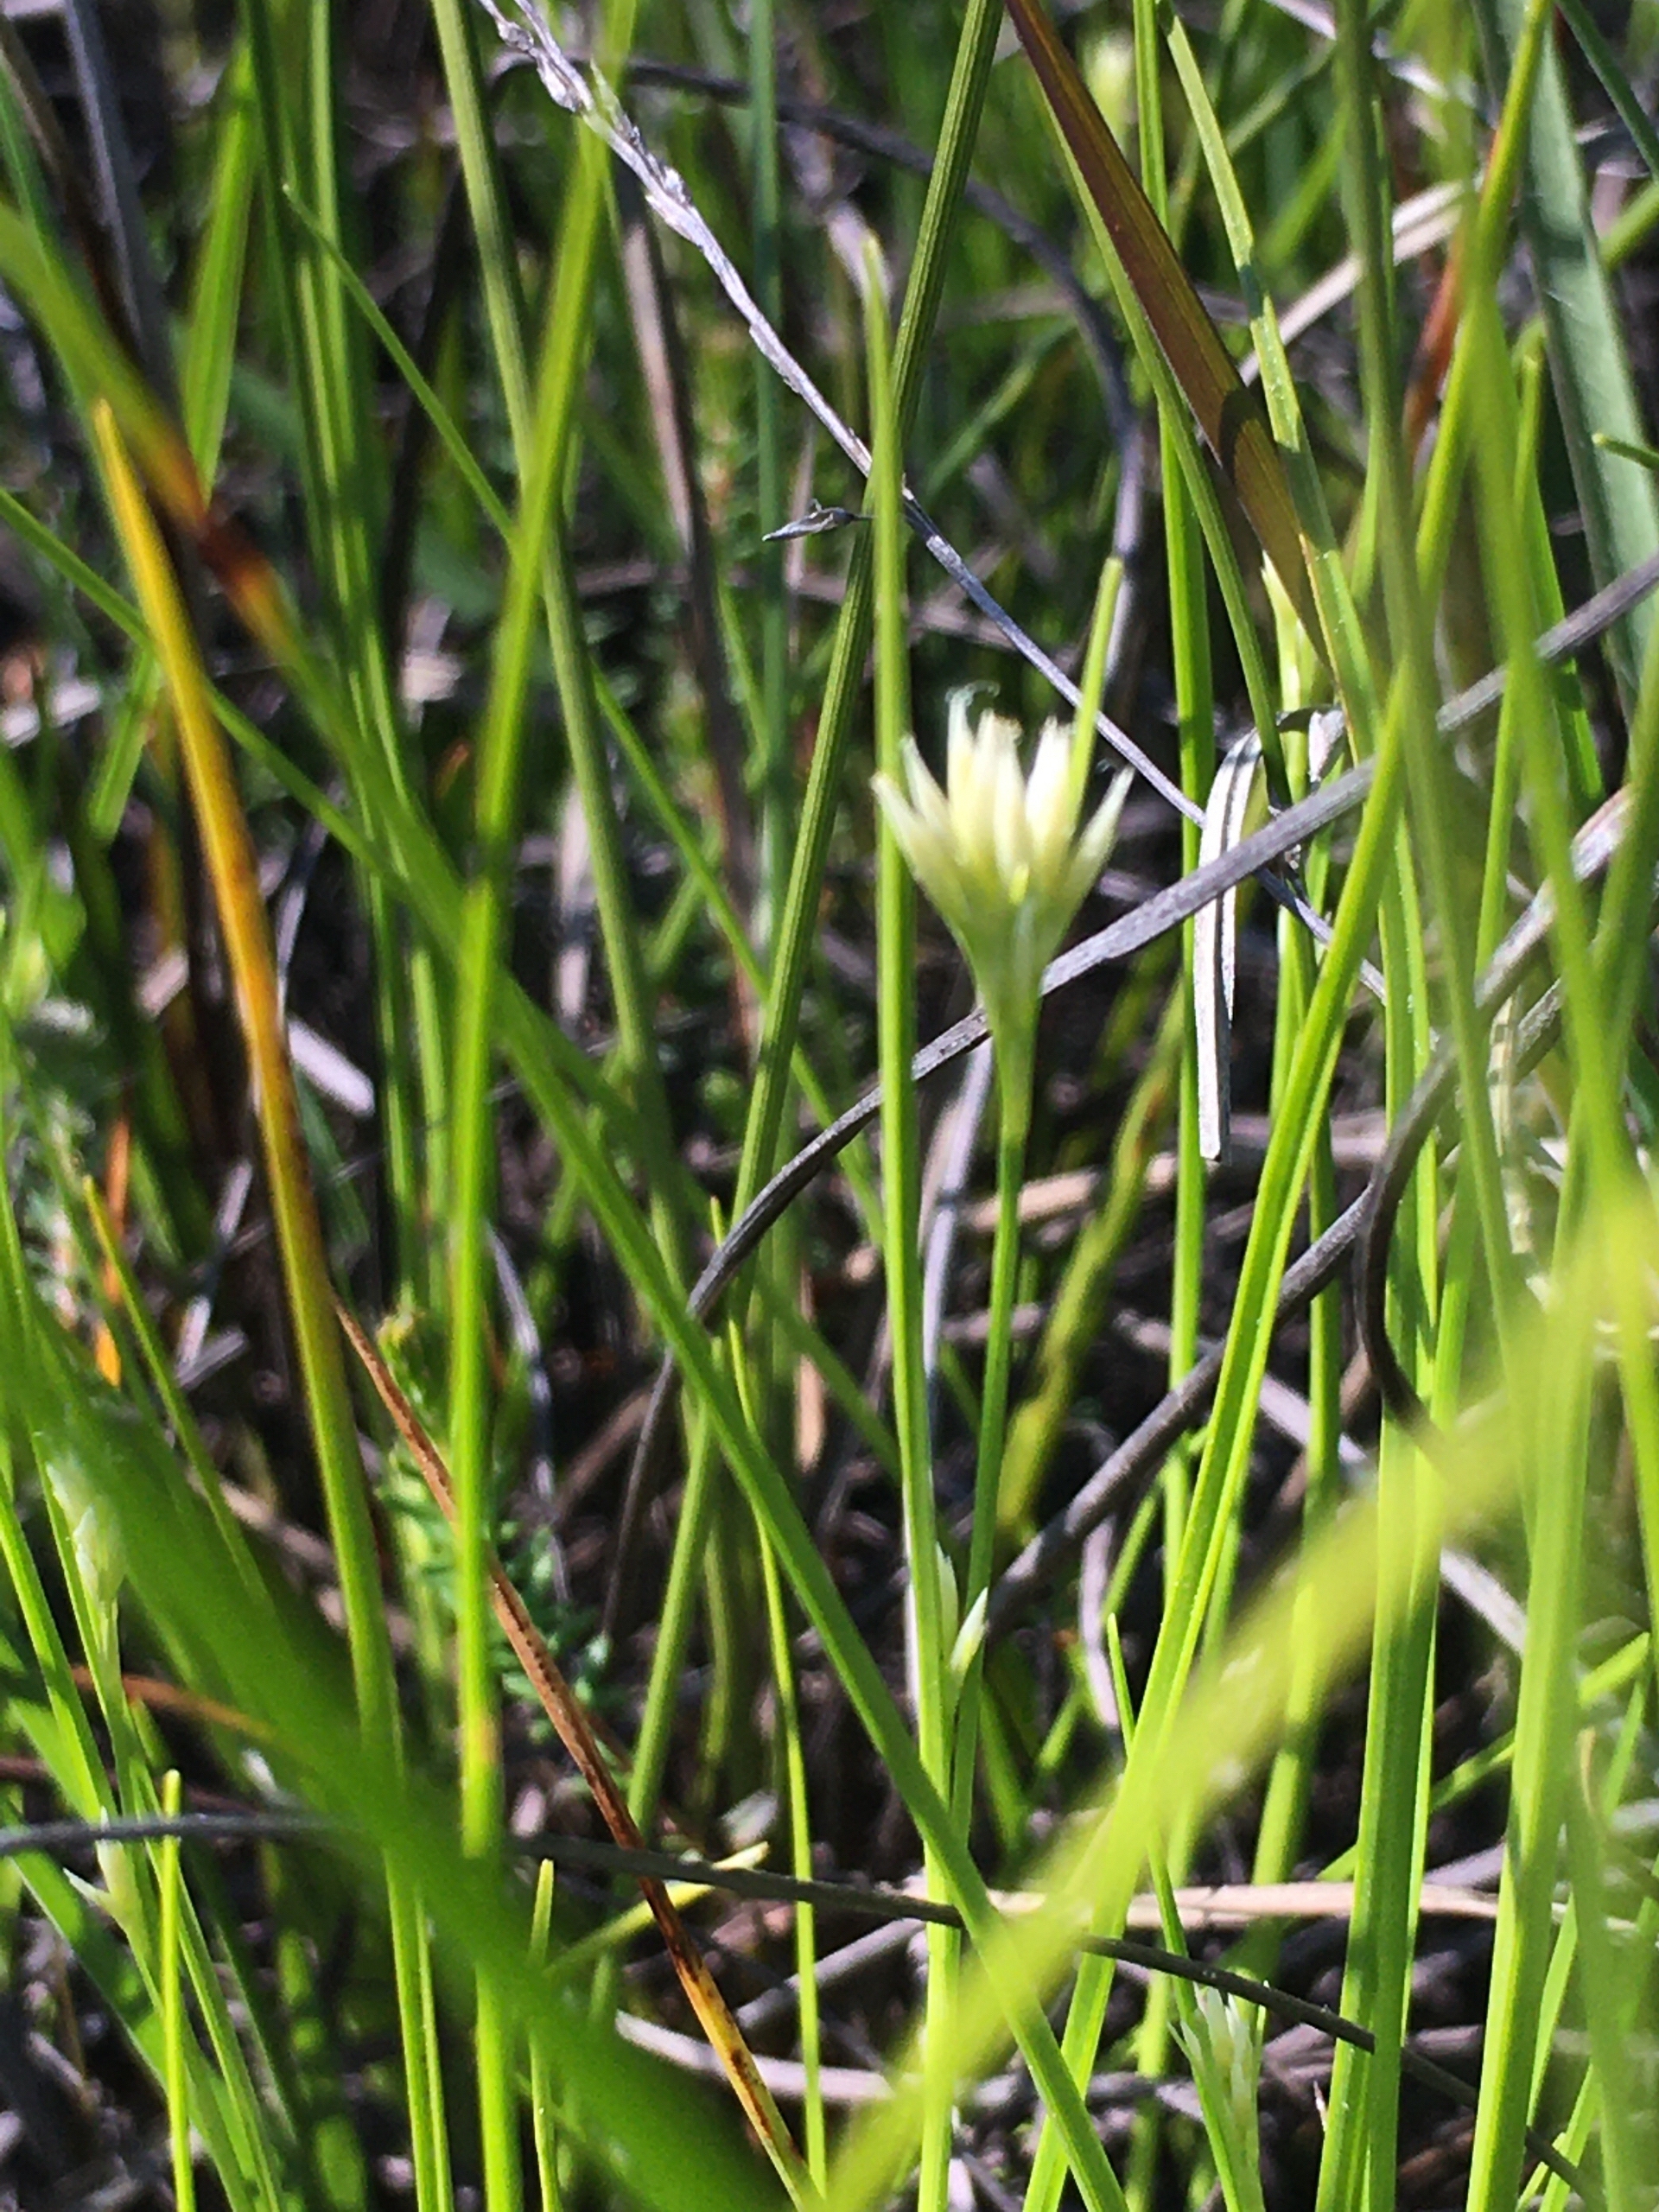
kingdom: Plantae
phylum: Tracheophyta
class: Liliopsida
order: Poales
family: Cyperaceae
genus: Rhynchospora
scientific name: Rhynchospora alba
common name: Hvid næbfrø
